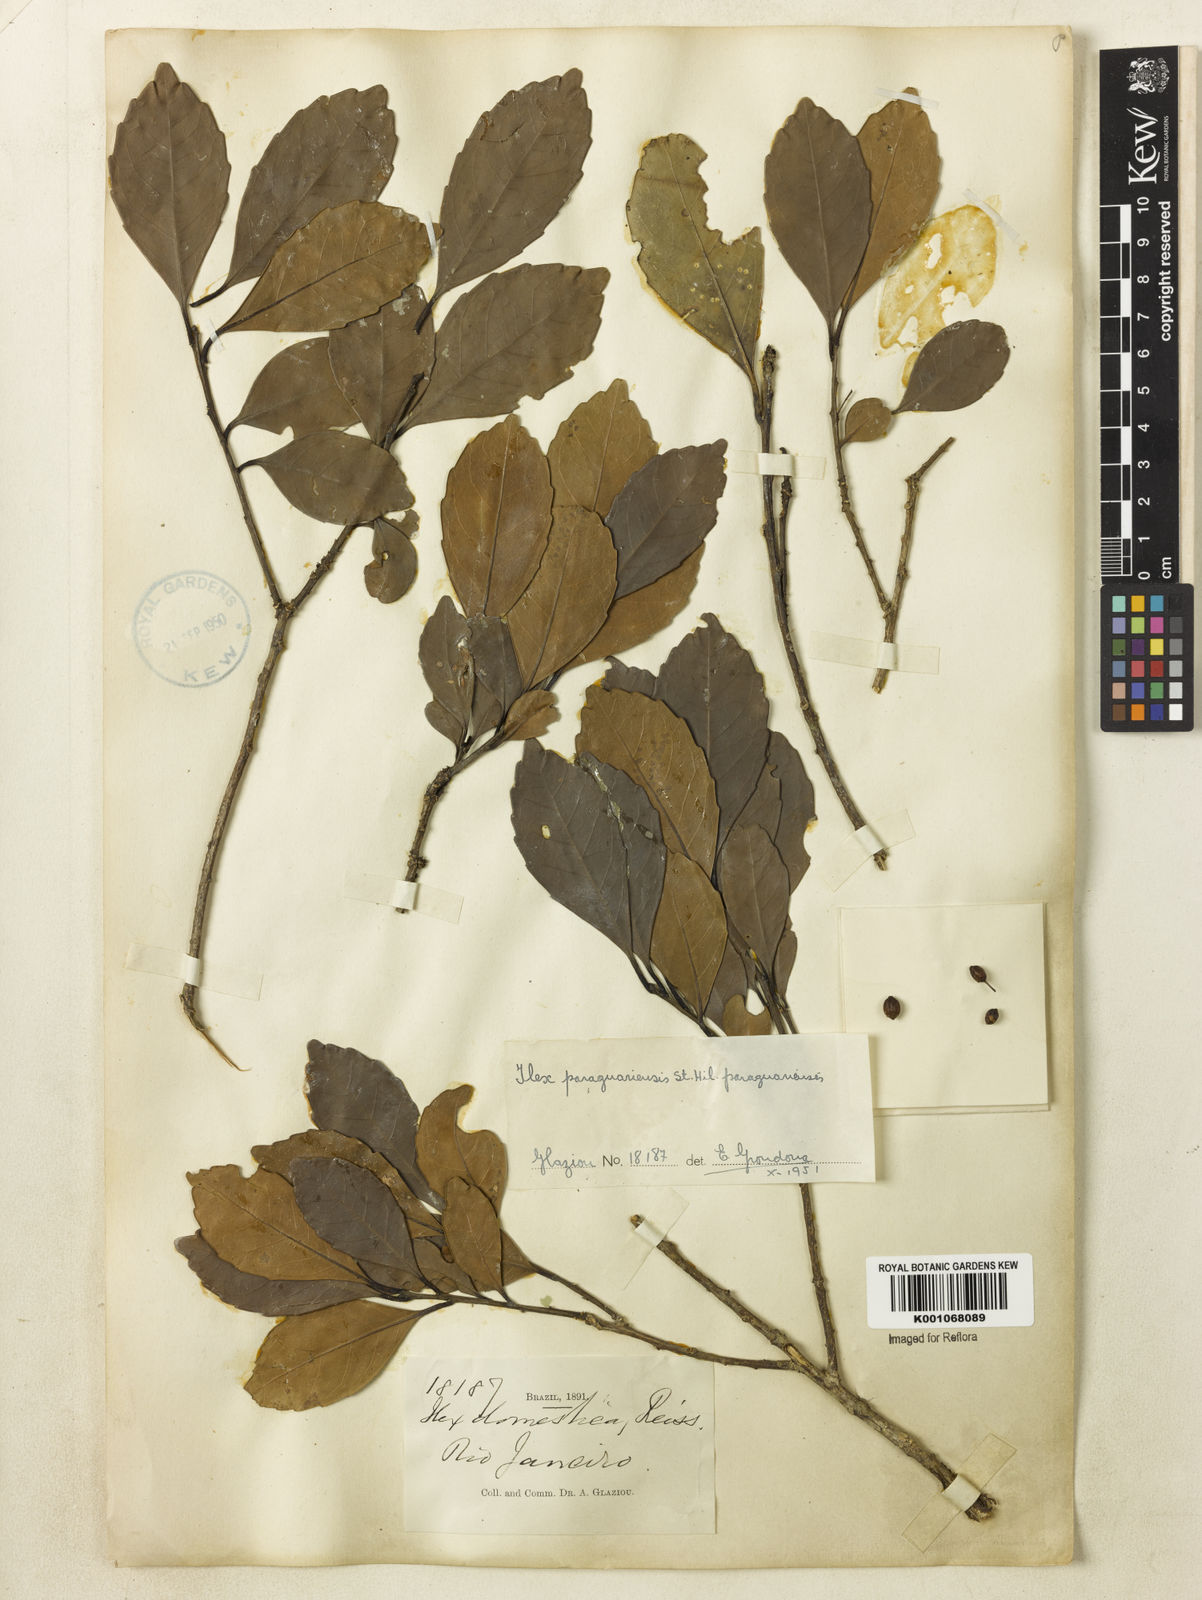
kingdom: Plantae
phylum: Tracheophyta
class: Magnoliopsida
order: Aquifoliales
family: Aquifoliaceae
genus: Ilex
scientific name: Ilex paraguariensis
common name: Paraguay tea
